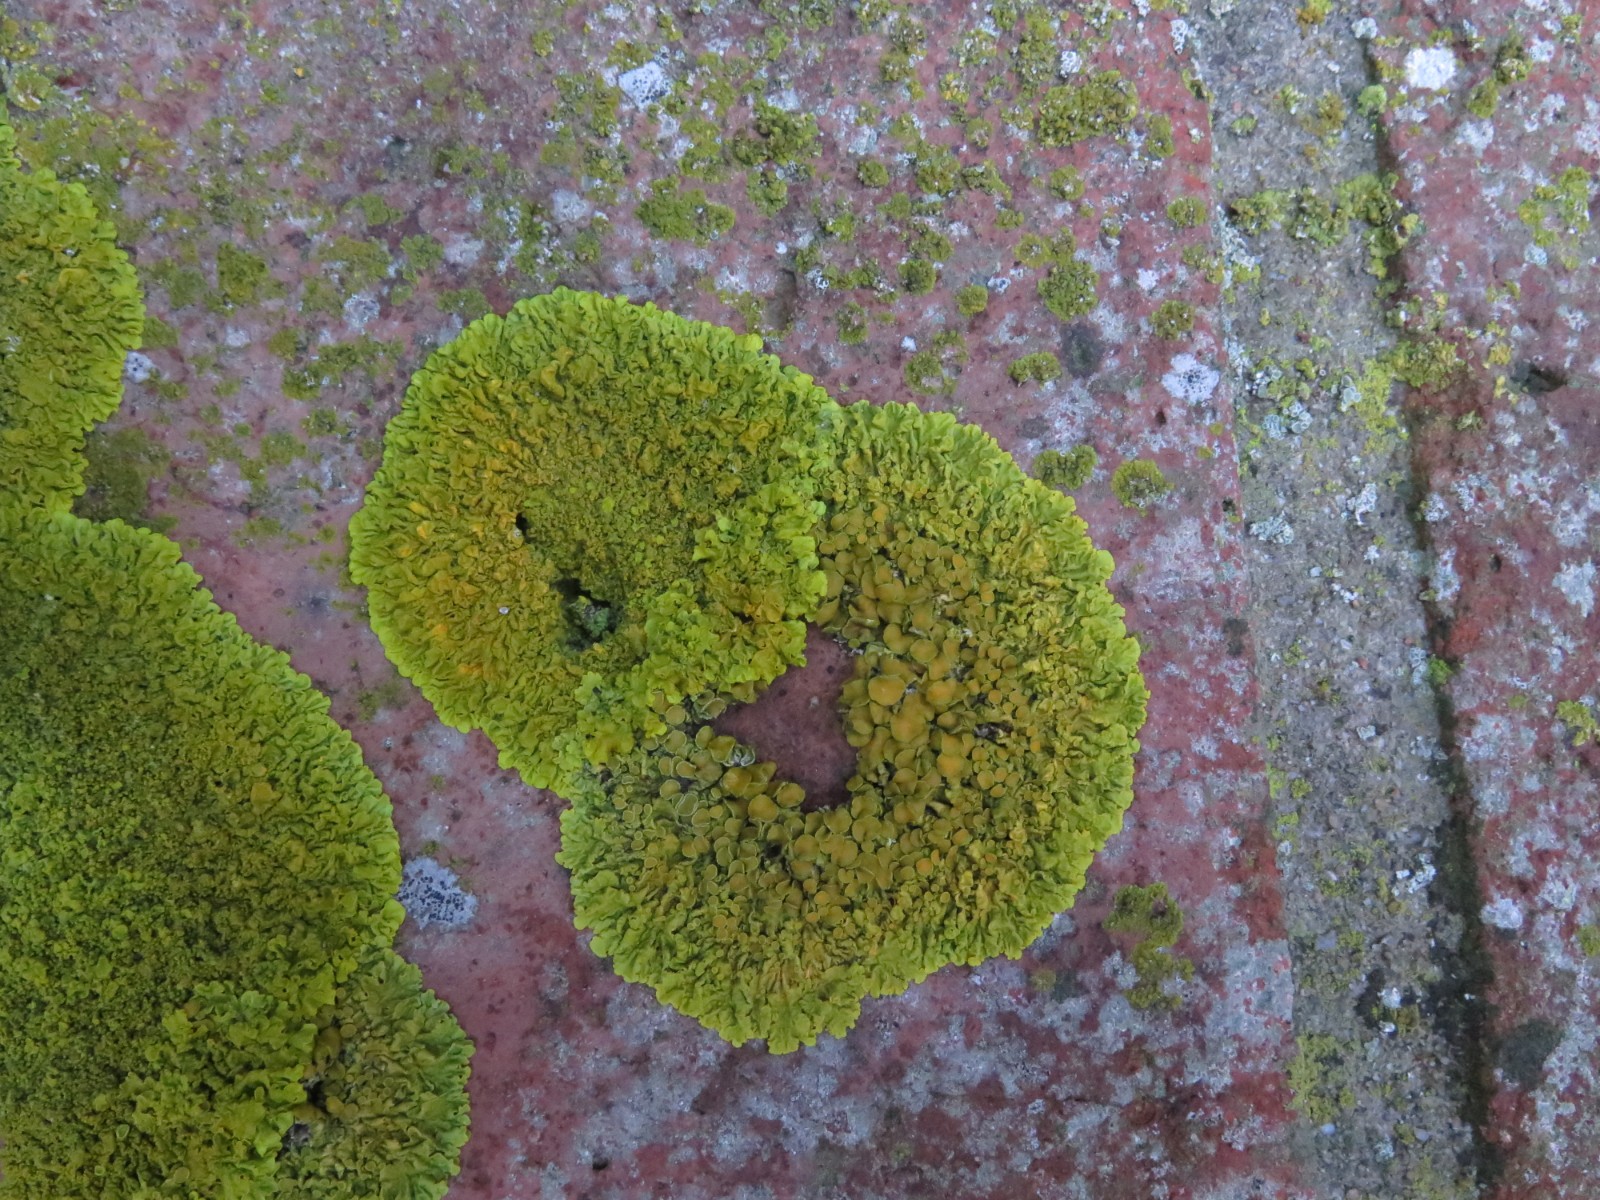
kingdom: Fungi
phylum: Ascomycota
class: Lecanoromycetes
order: Teloschistales
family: Teloschistaceae
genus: Xanthoria
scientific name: Xanthoria parietina
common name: almindelig væggelav
